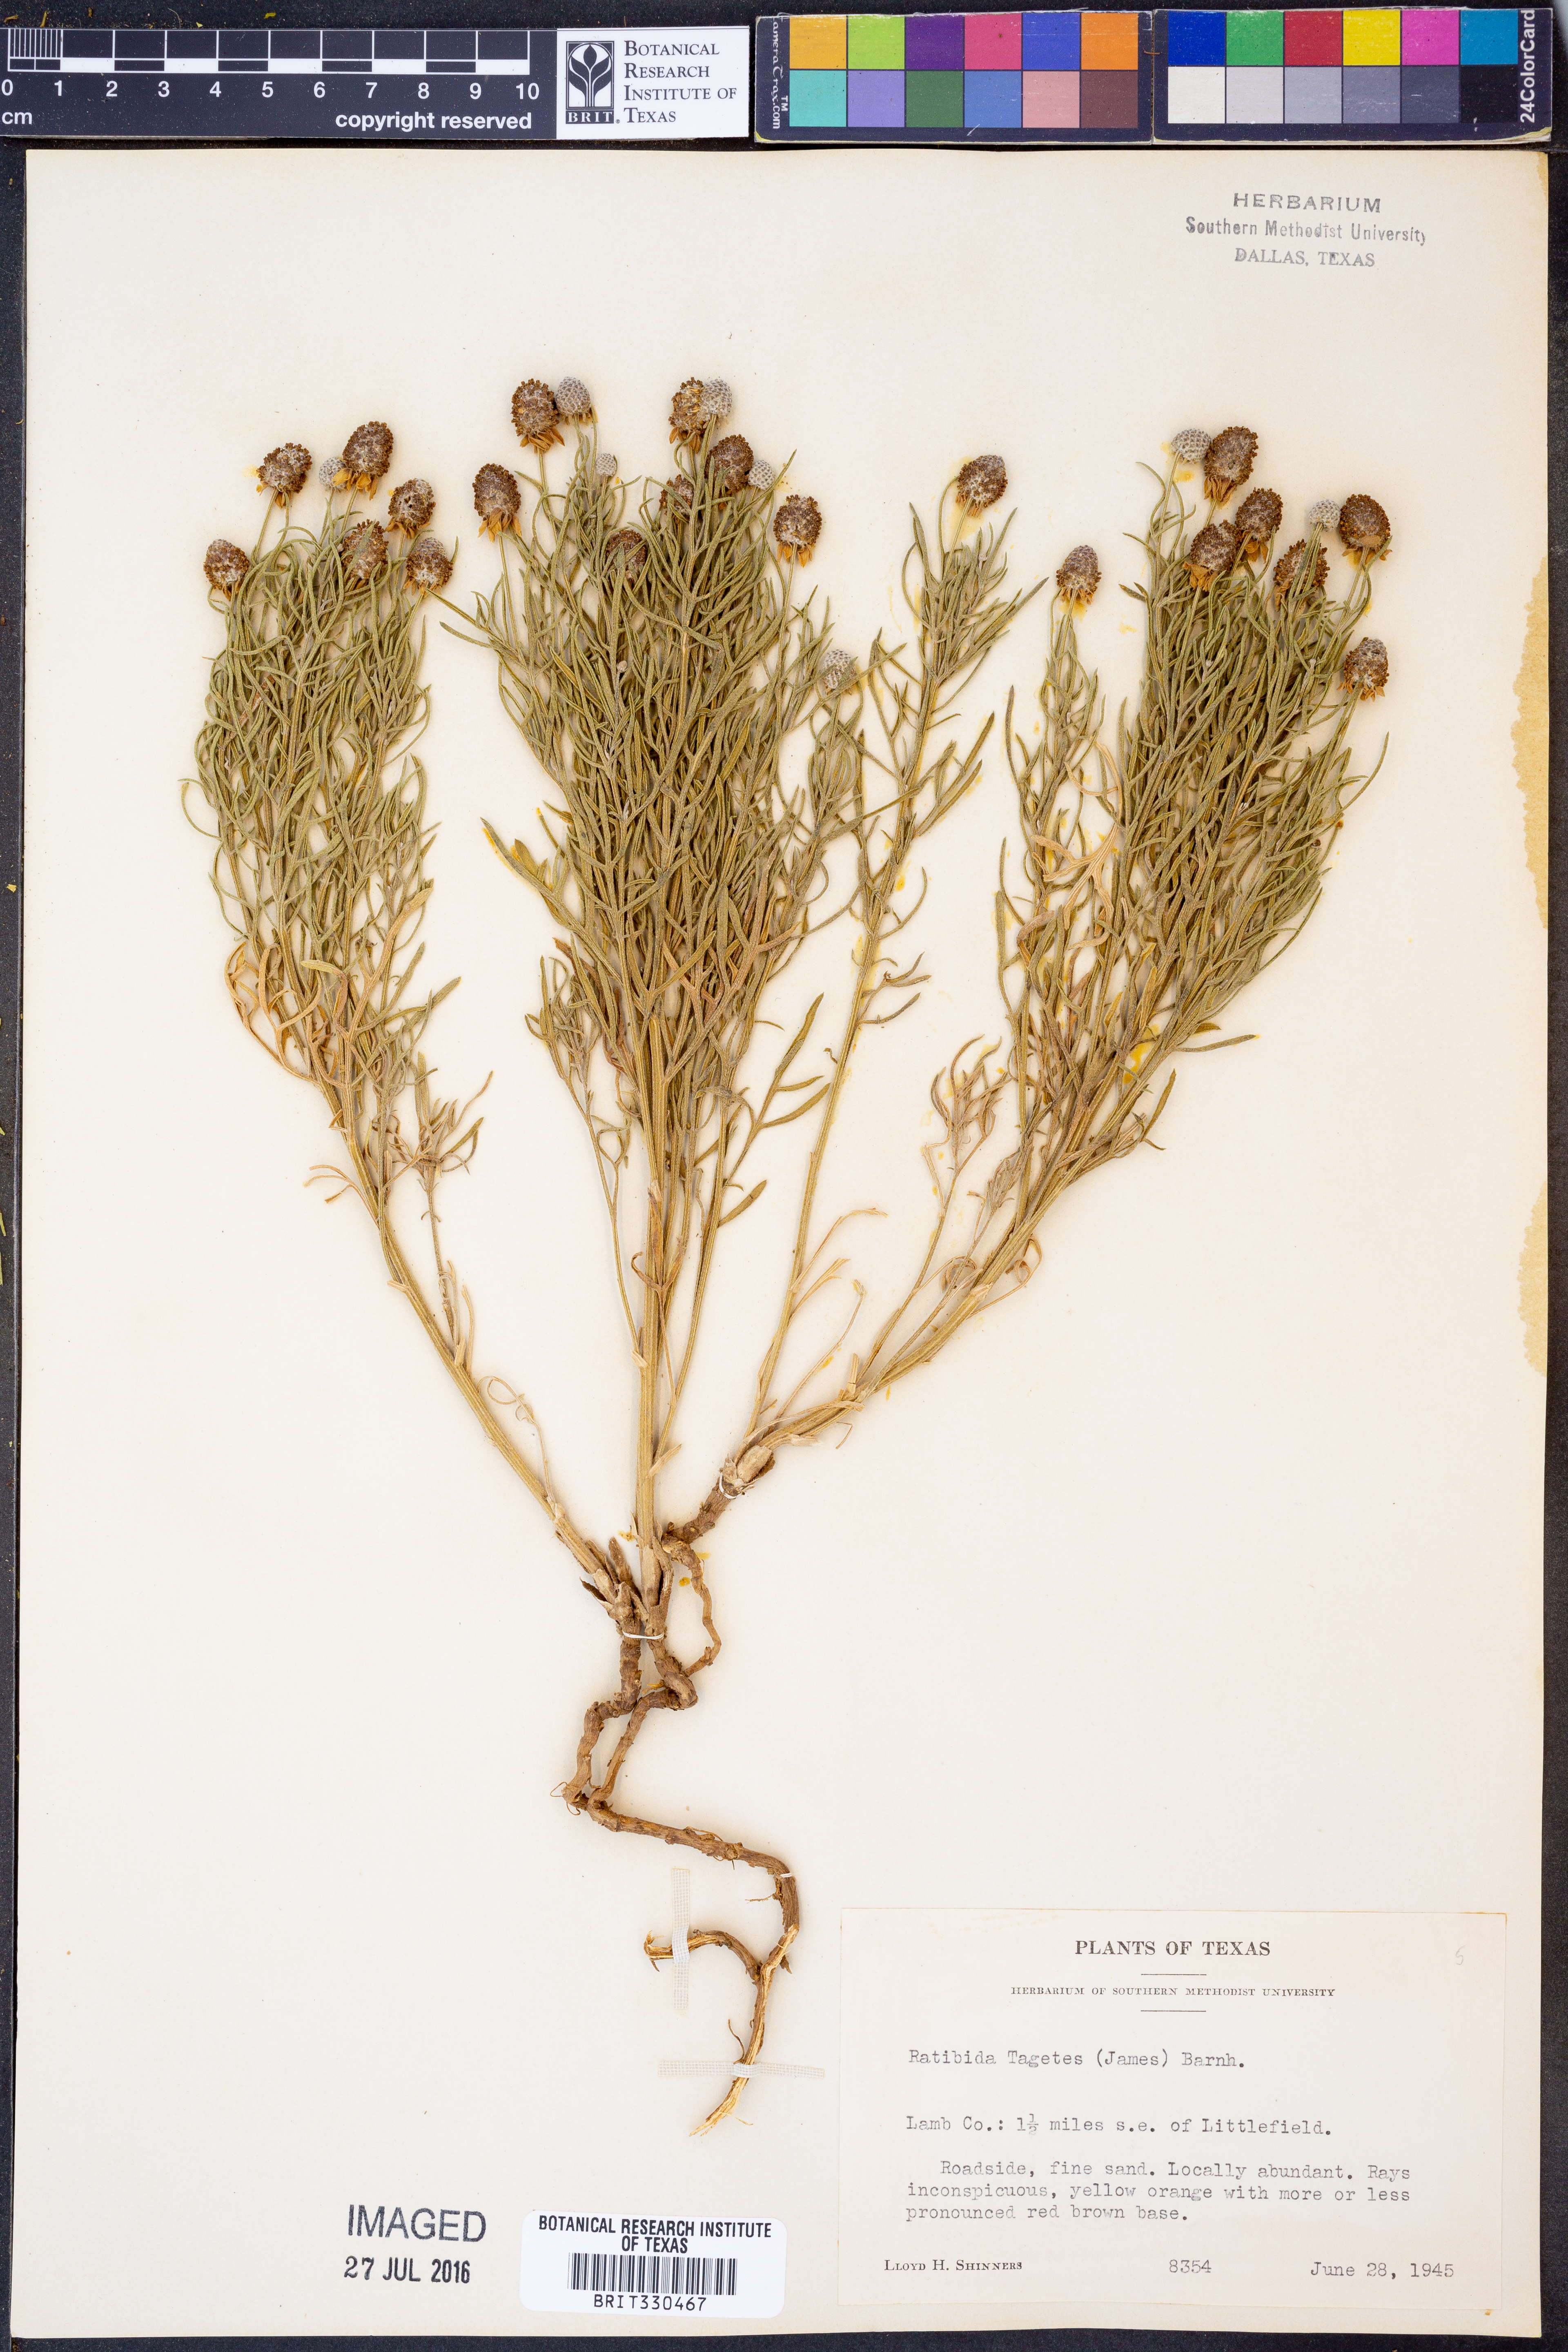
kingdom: Plantae
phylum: Tracheophyta
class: Magnoliopsida
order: Asterales
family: Asteraceae
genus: Ratibida
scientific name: Ratibida tagetes
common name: Green mexican-hat
